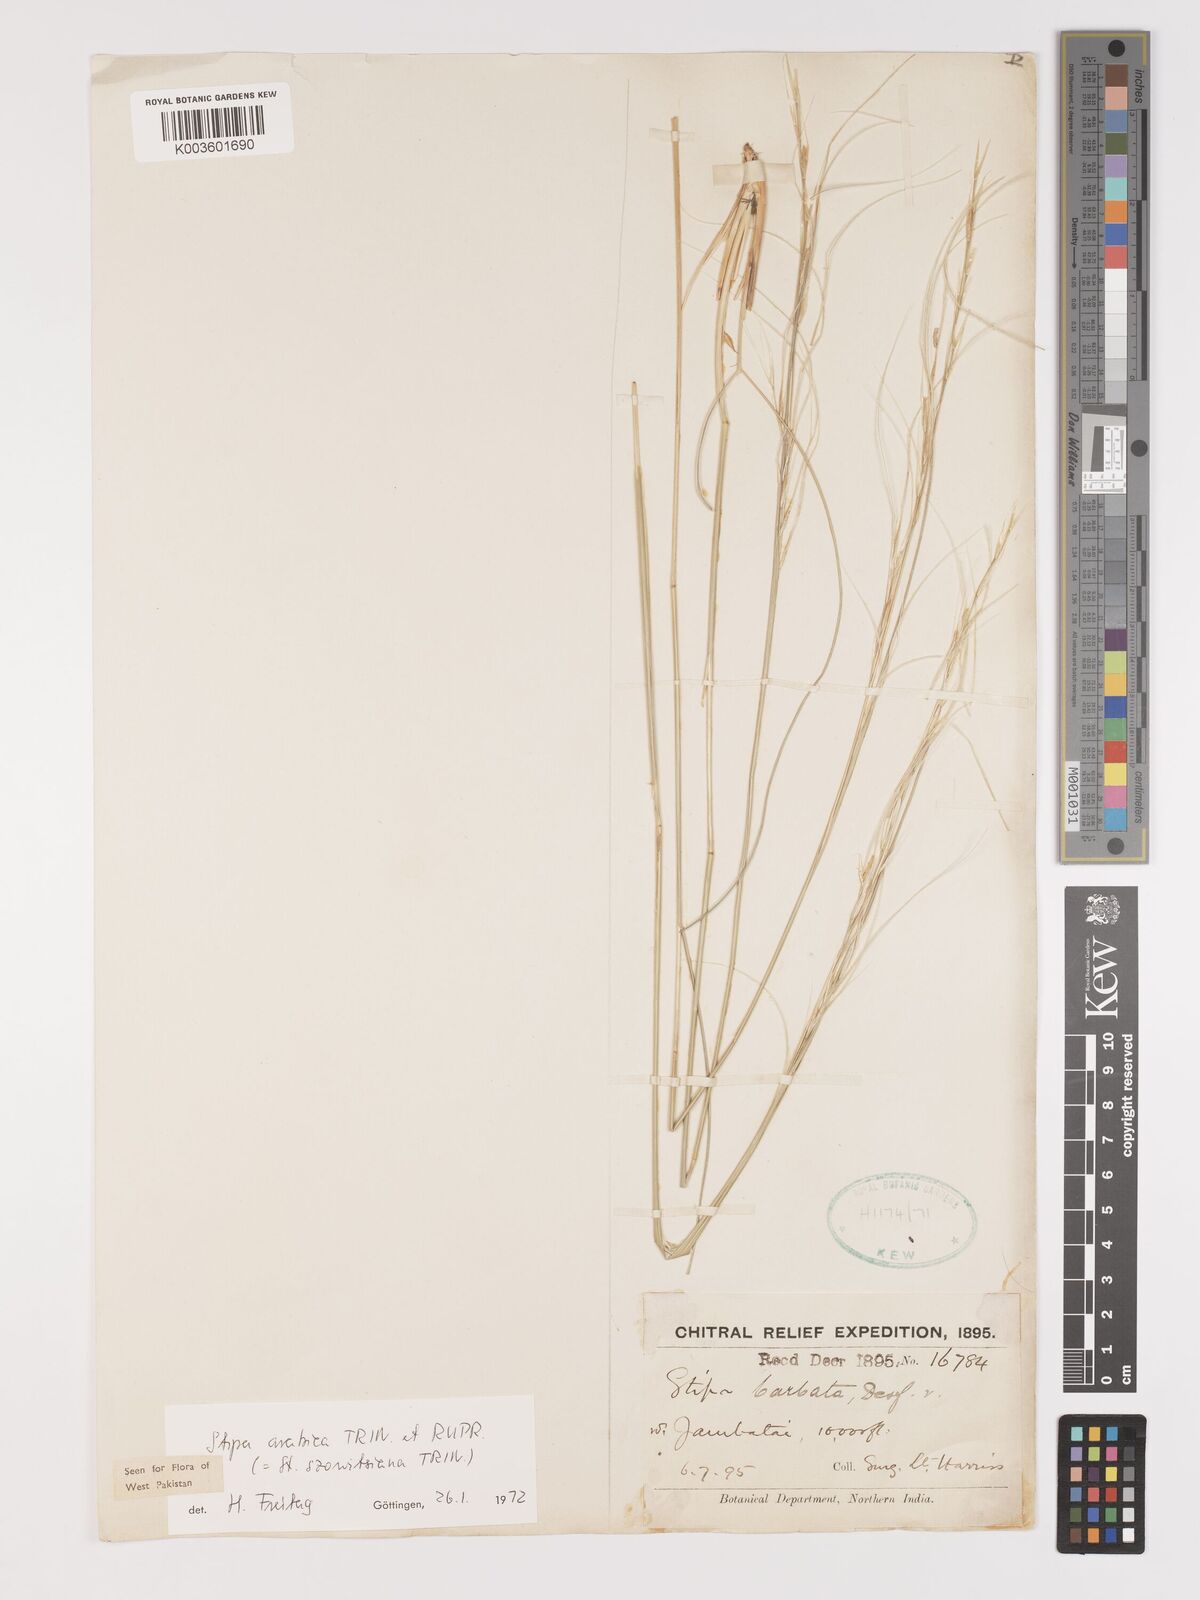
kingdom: Plantae
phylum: Tracheophyta
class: Liliopsida
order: Poales
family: Poaceae
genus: Stipa
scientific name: Stipa arabica
